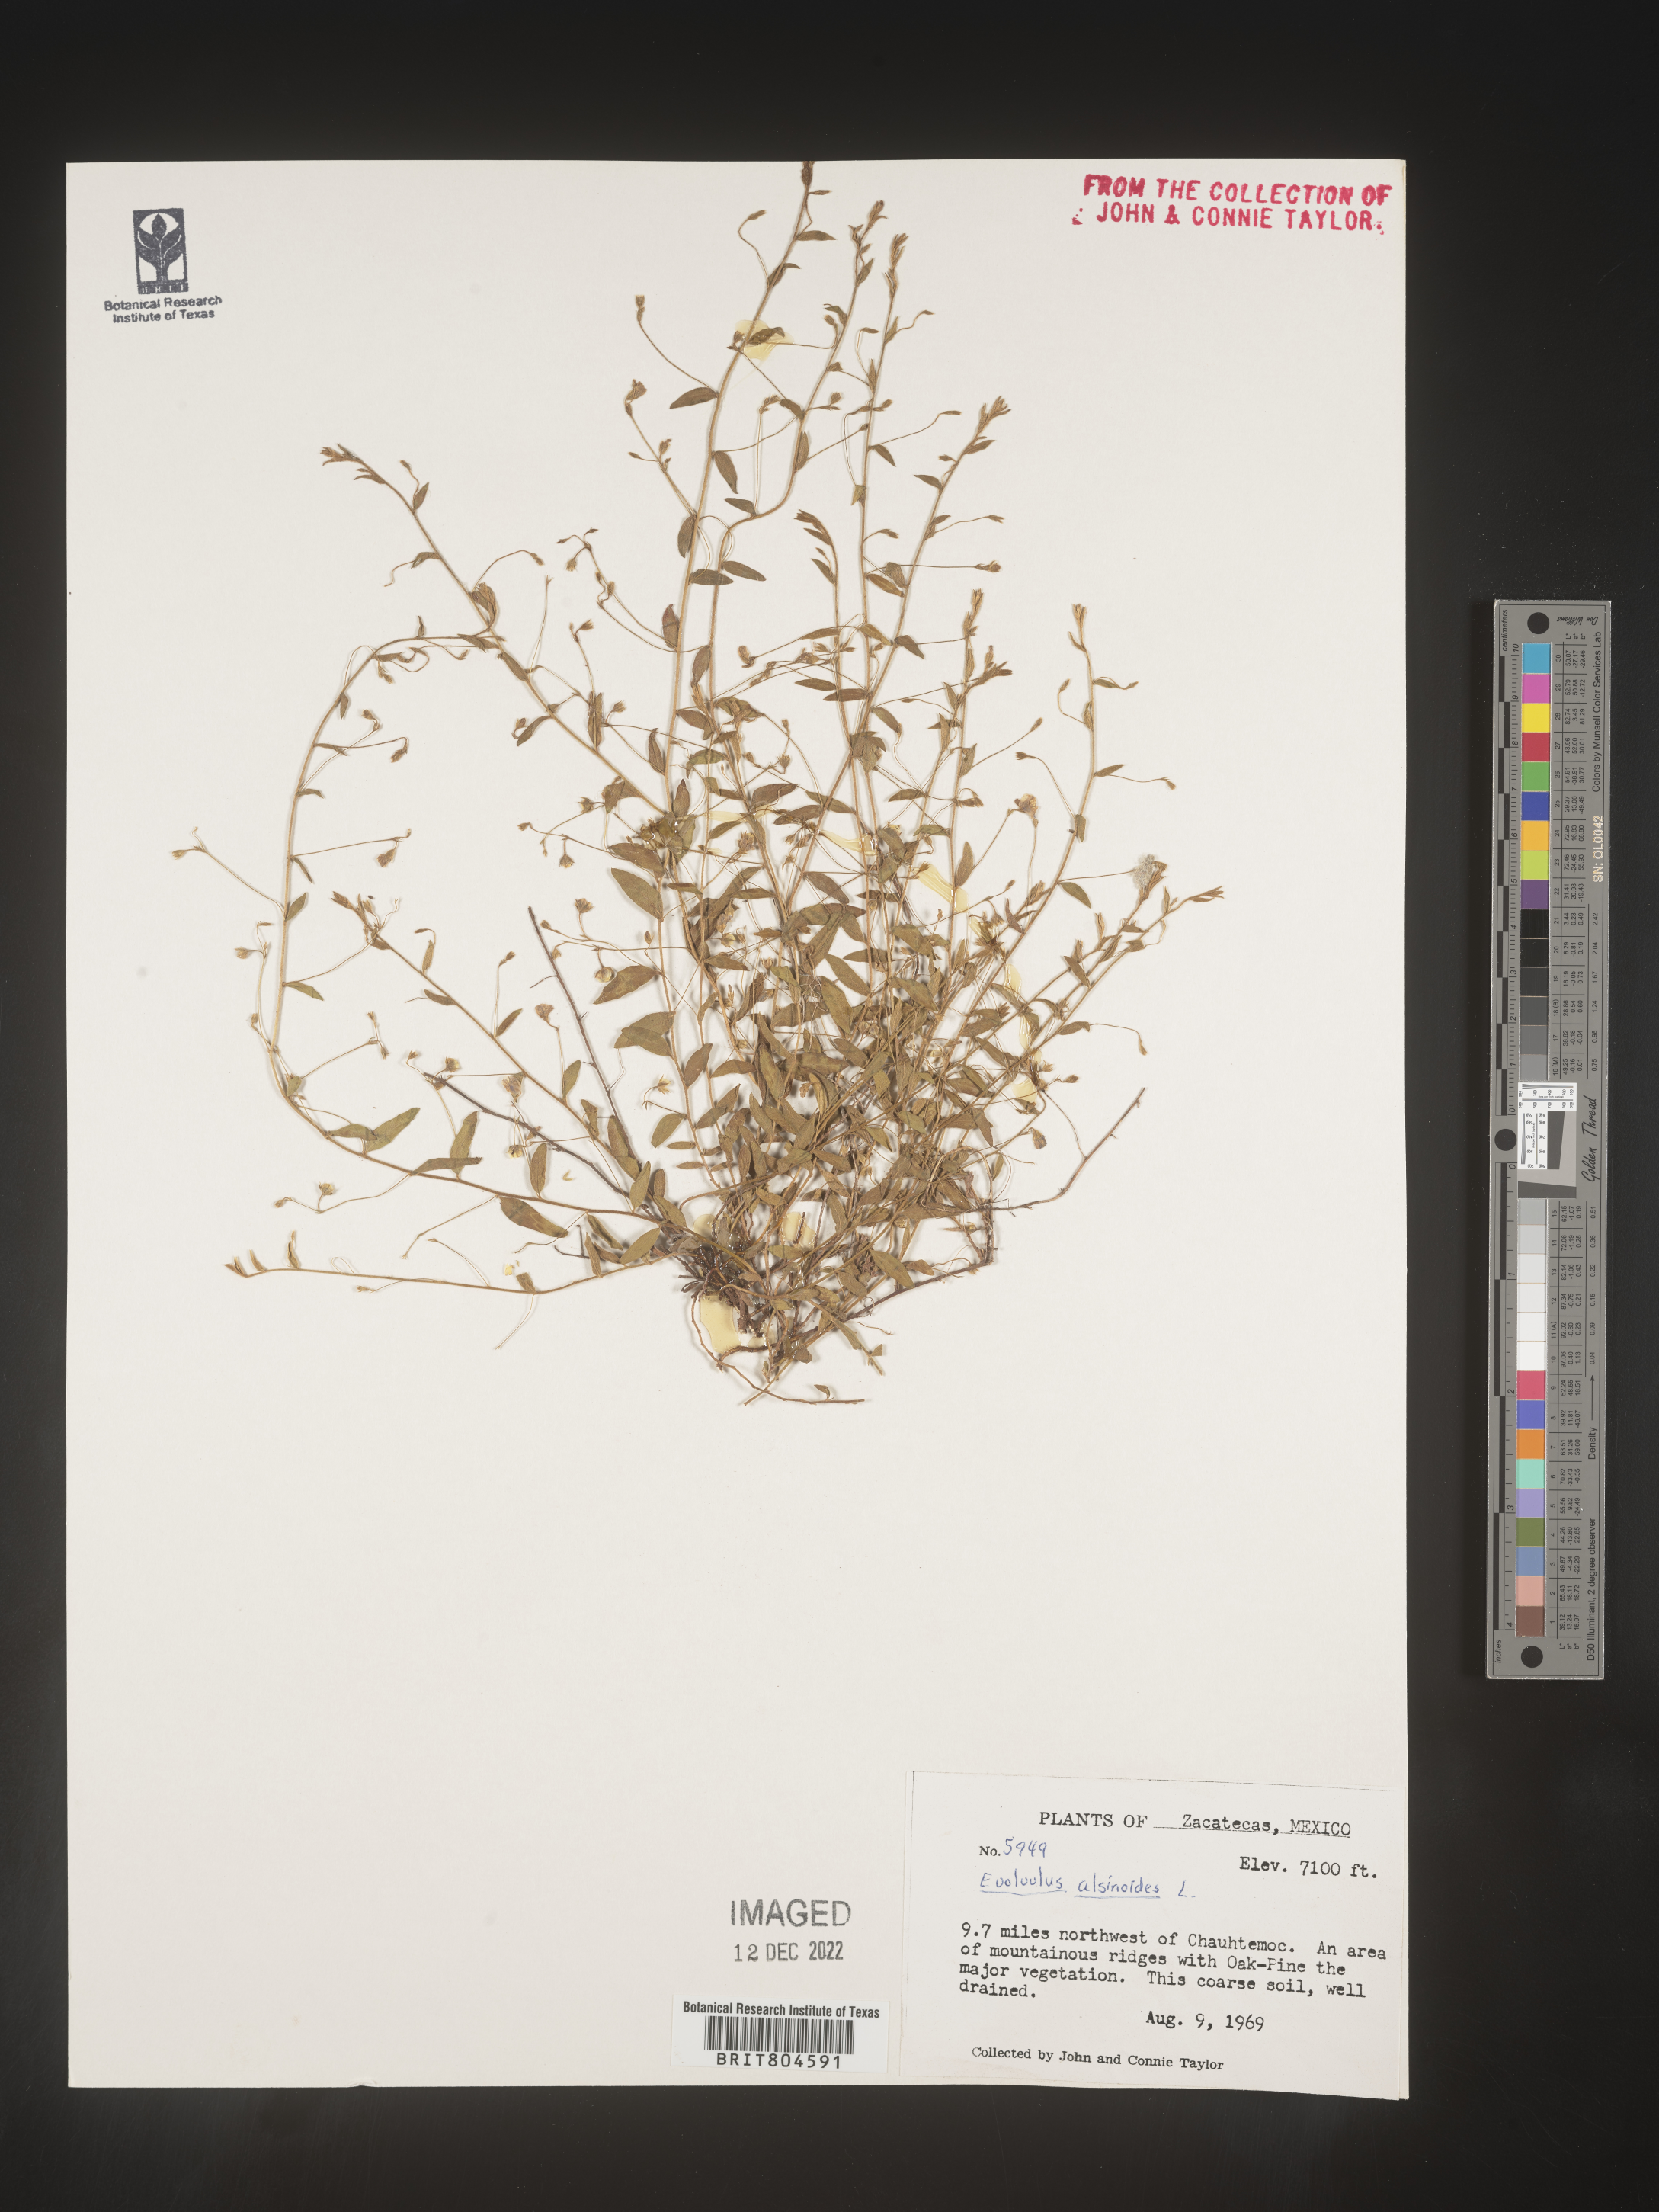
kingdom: Plantae
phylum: Tracheophyta
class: Magnoliopsida
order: Solanales
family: Convolvulaceae
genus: Evolvulus
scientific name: Evolvulus
